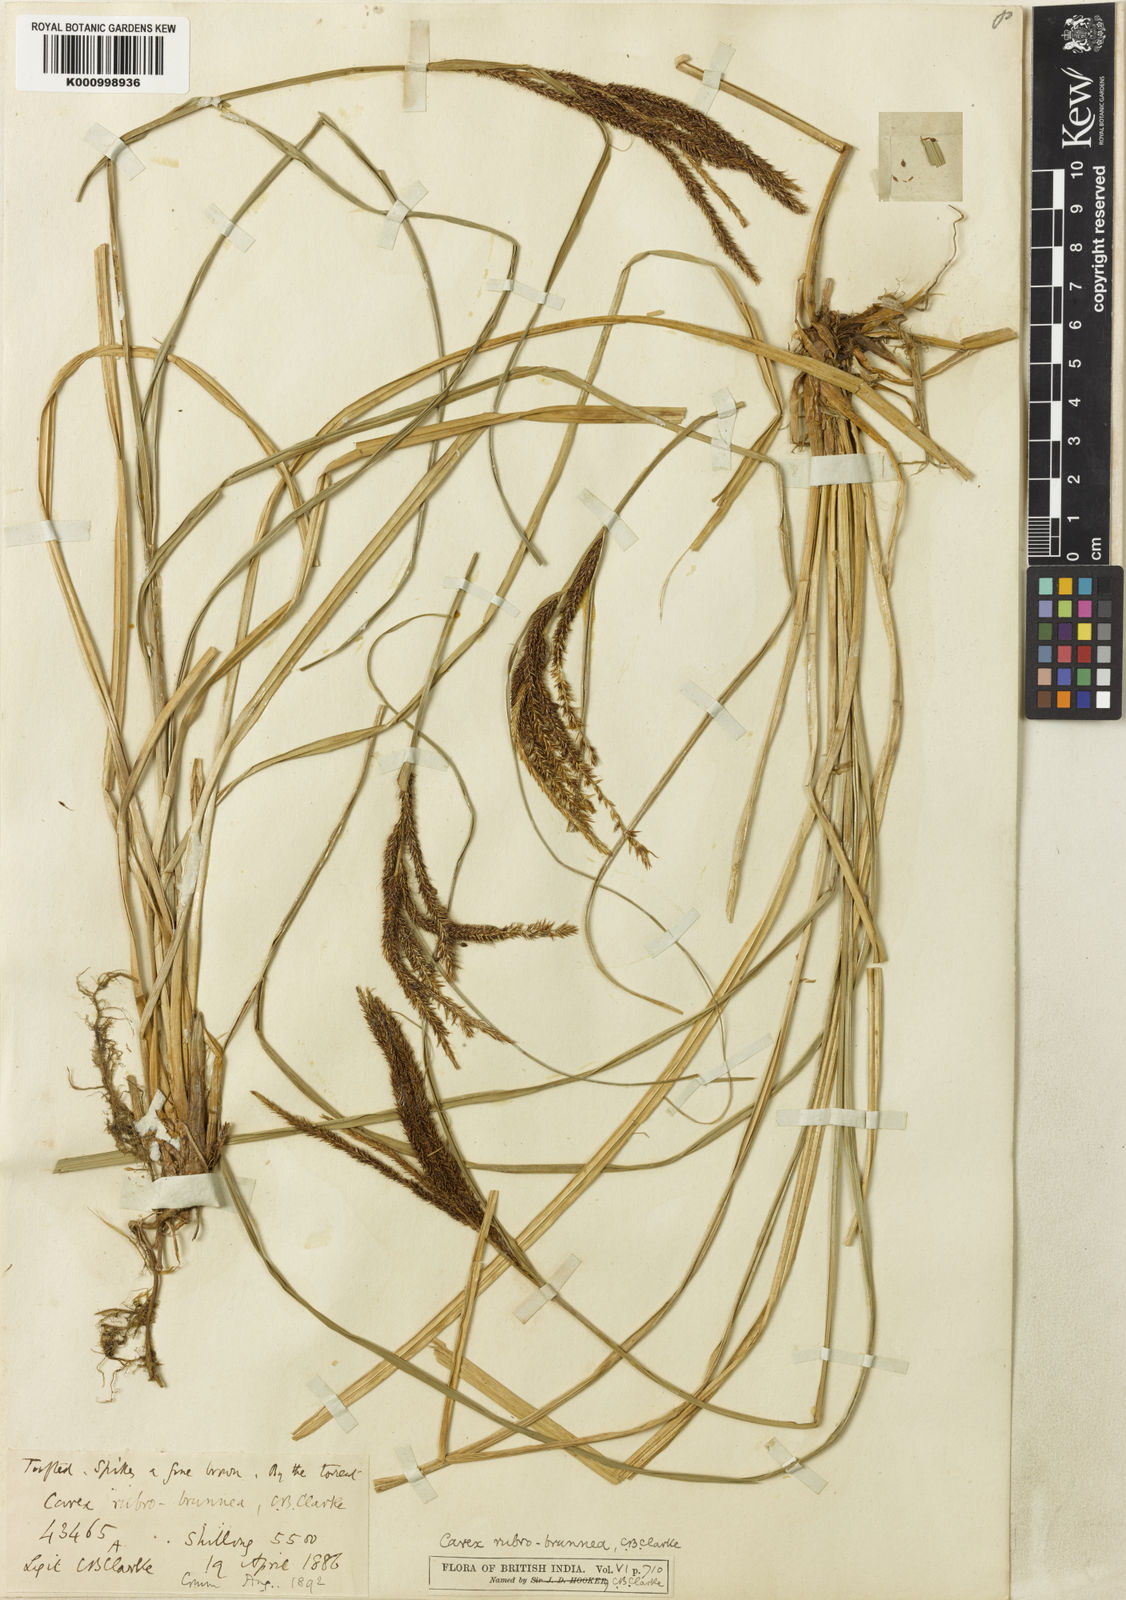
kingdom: Plantae
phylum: Tracheophyta
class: Liliopsida
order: Poales
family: Cyperaceae
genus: Carex
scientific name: Carex rubrobrunnea
